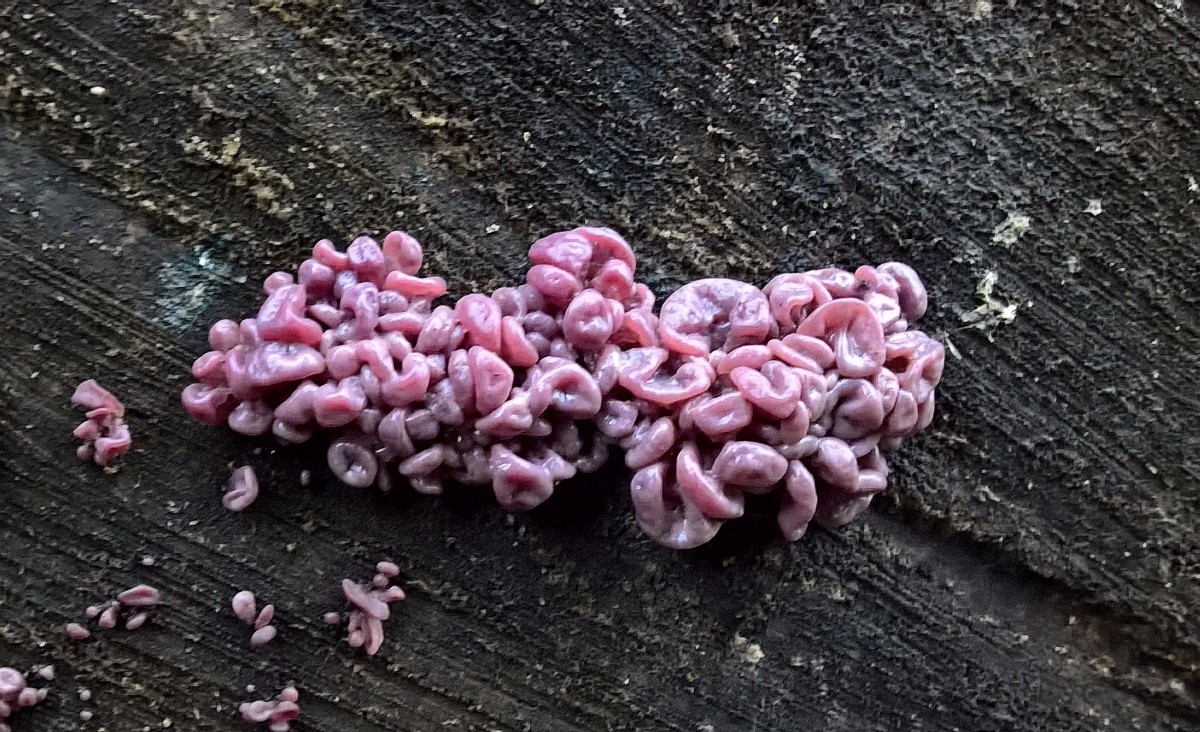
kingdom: Fungi
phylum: Ascomycota
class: Leotiomycetes
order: Helotiales
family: Gelatinodiscaceae
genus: Ascocoryne
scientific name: Ascocoryne sarcoides
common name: rødlilla sejskive
